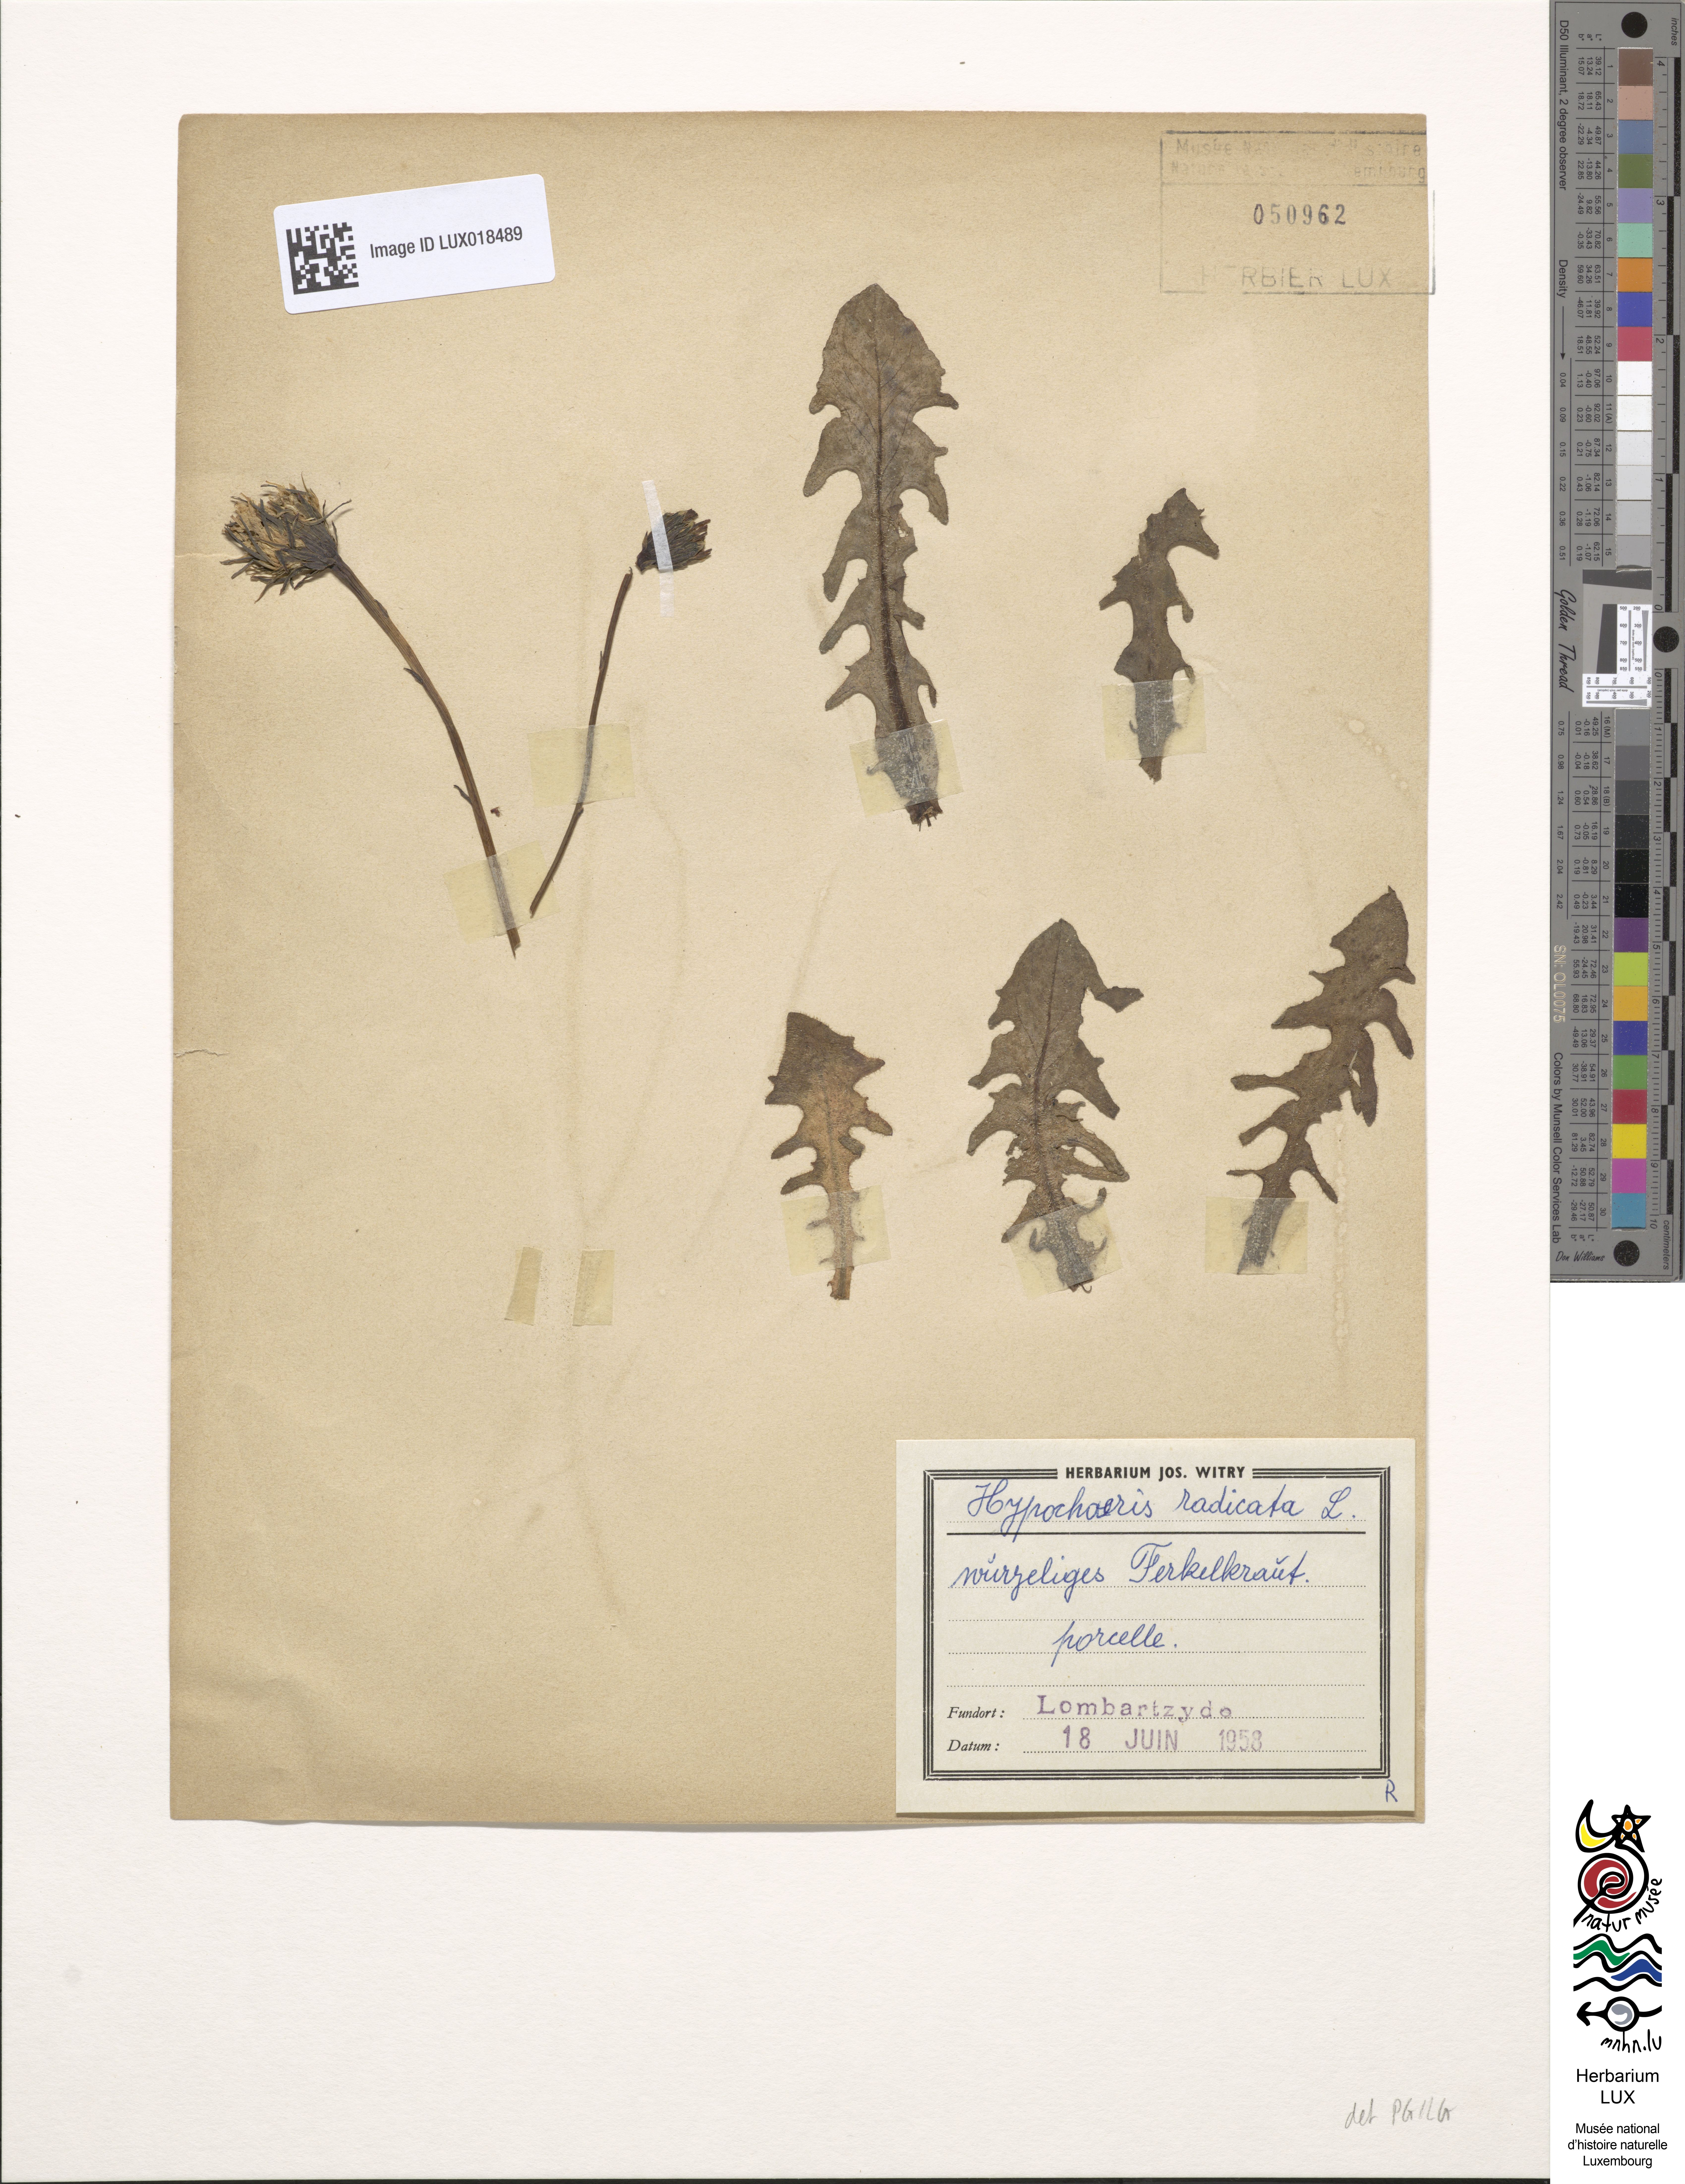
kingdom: Plantae
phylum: Tracheophyta
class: Magnoliopsida
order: Asterales
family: Asteraceae
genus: Hypochoeris
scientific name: Hypochoeris radicata
